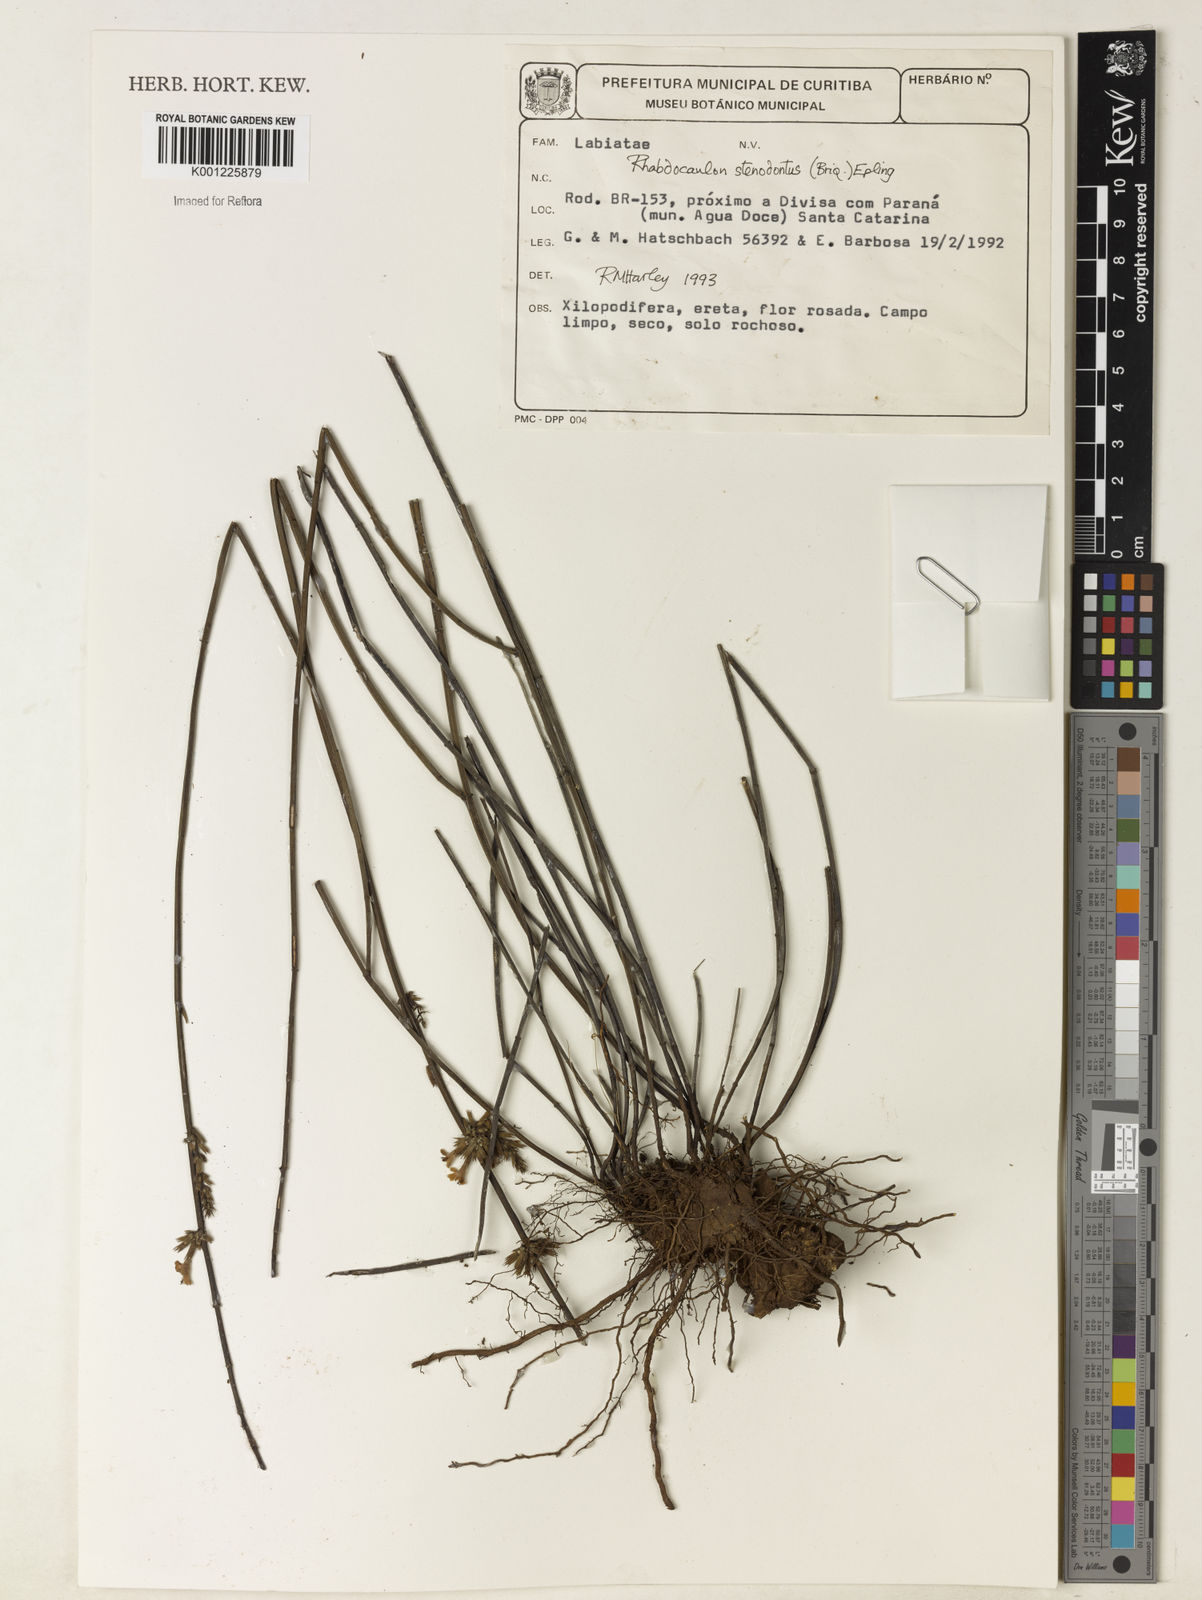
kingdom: Plantae
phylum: Tracheophyta
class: Magnoliopsida
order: Lamiales
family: Lamiaceae
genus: Rhabdocaulon
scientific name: Rhabdocaulon stenodontum
